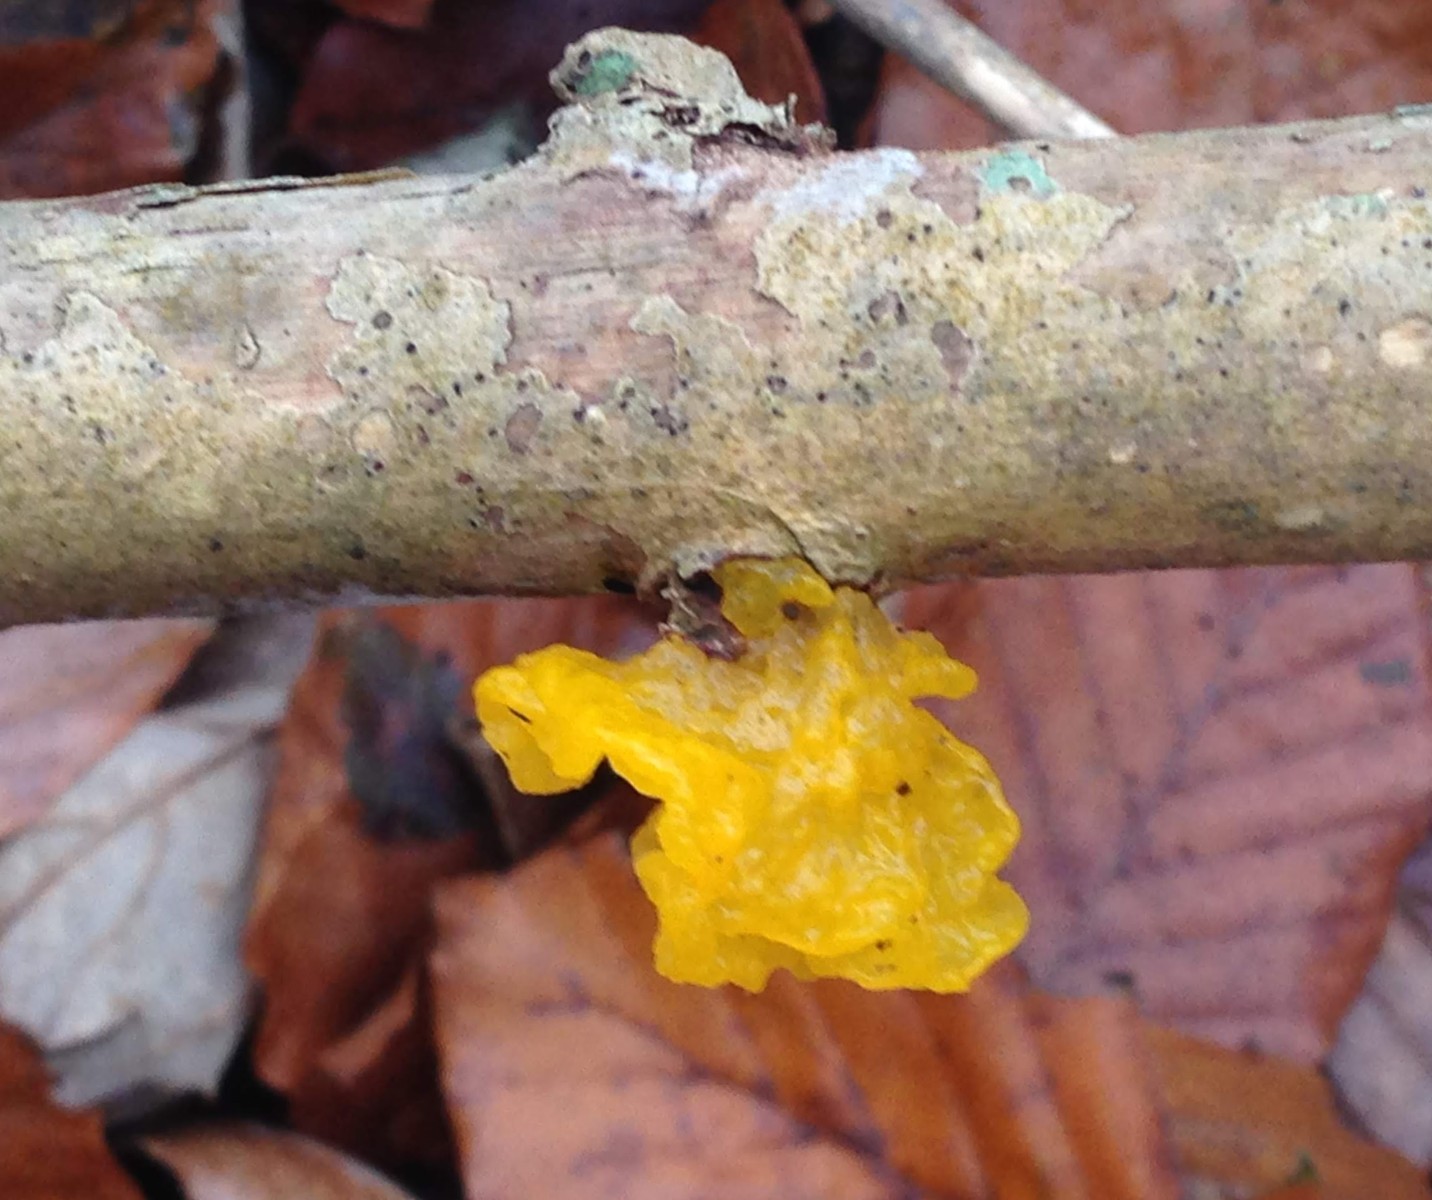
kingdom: Fungi
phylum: Basidiomycota
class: Tremellomycetes
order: Tremellales
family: Tremellaceae
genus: Tremella
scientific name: Tremella mesenterica
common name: gul bævresvamp
